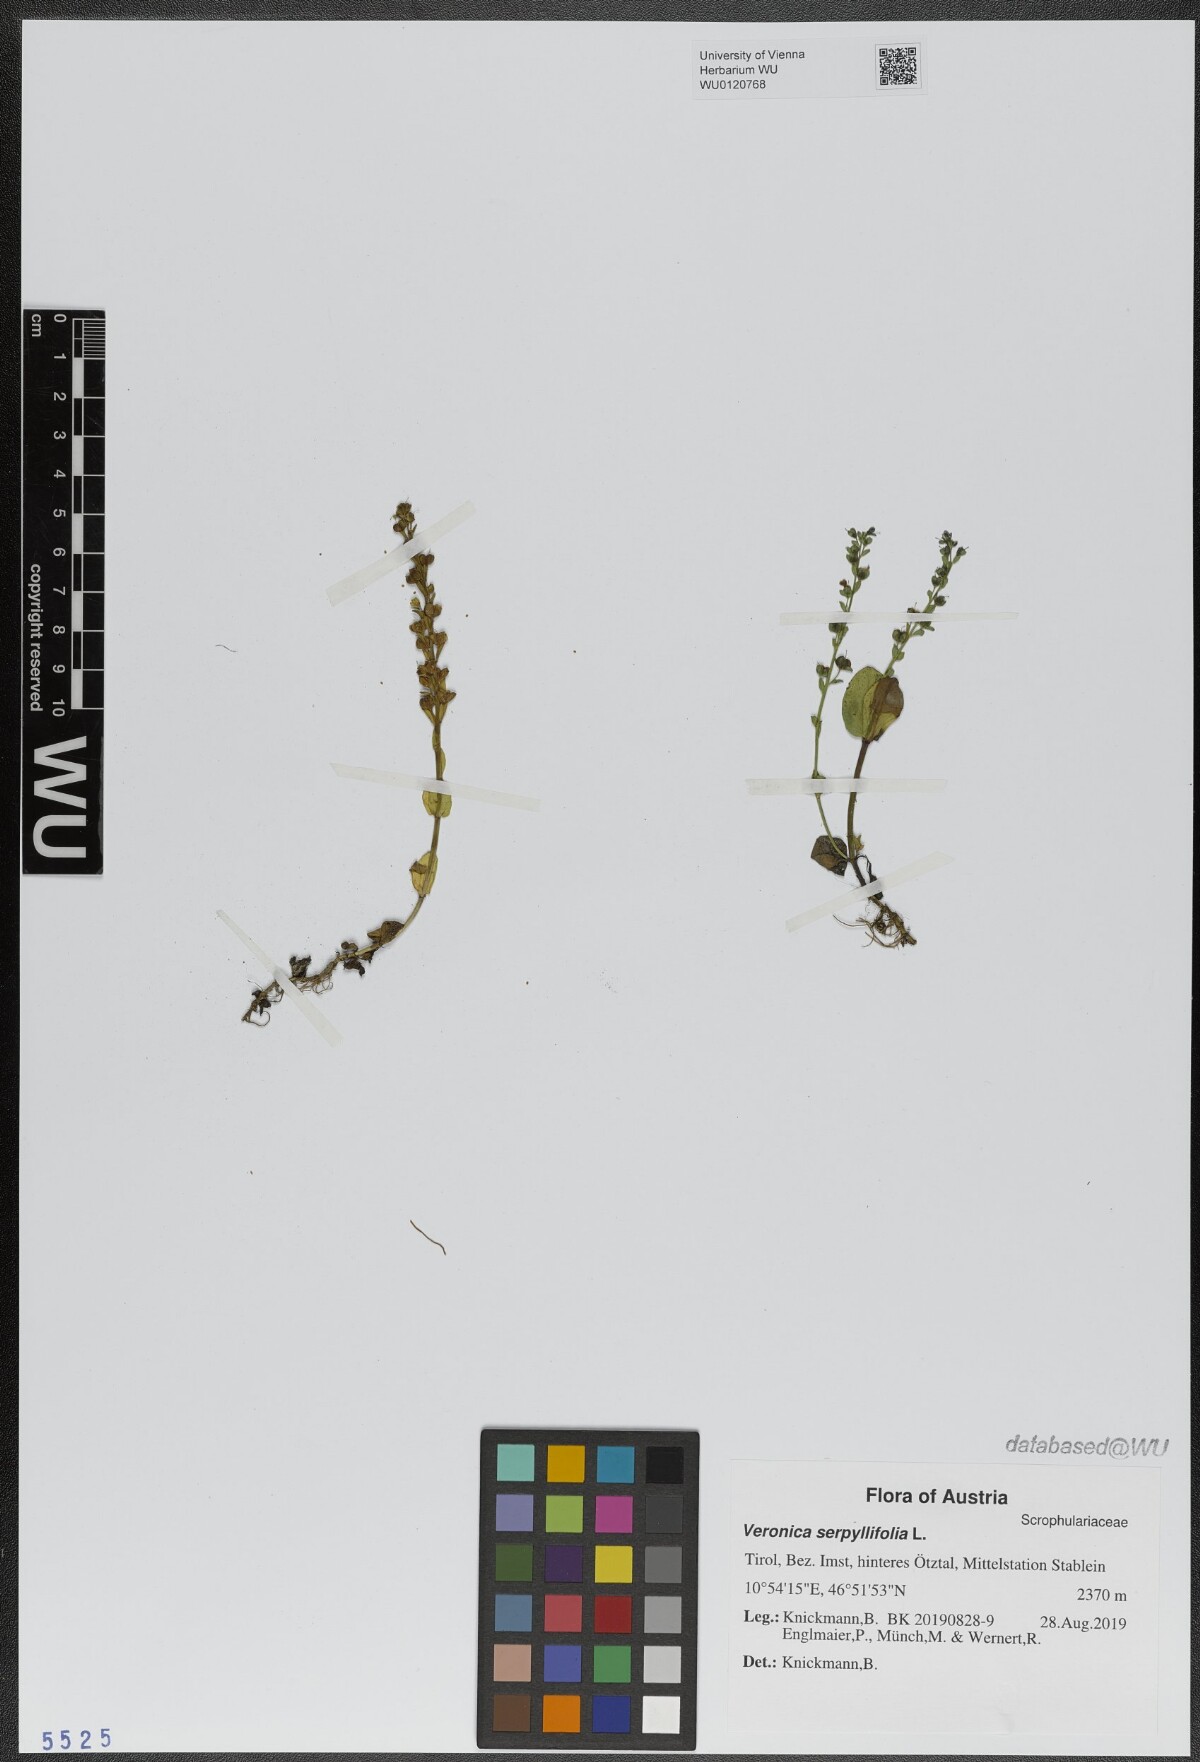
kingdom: Plantae
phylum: Tracheophyta
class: Magnoliopsida
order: Lamiales
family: Plantaginaceae
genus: Veronica
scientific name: Veronica serpyllifolia
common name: Thyme-leaved speedwell
